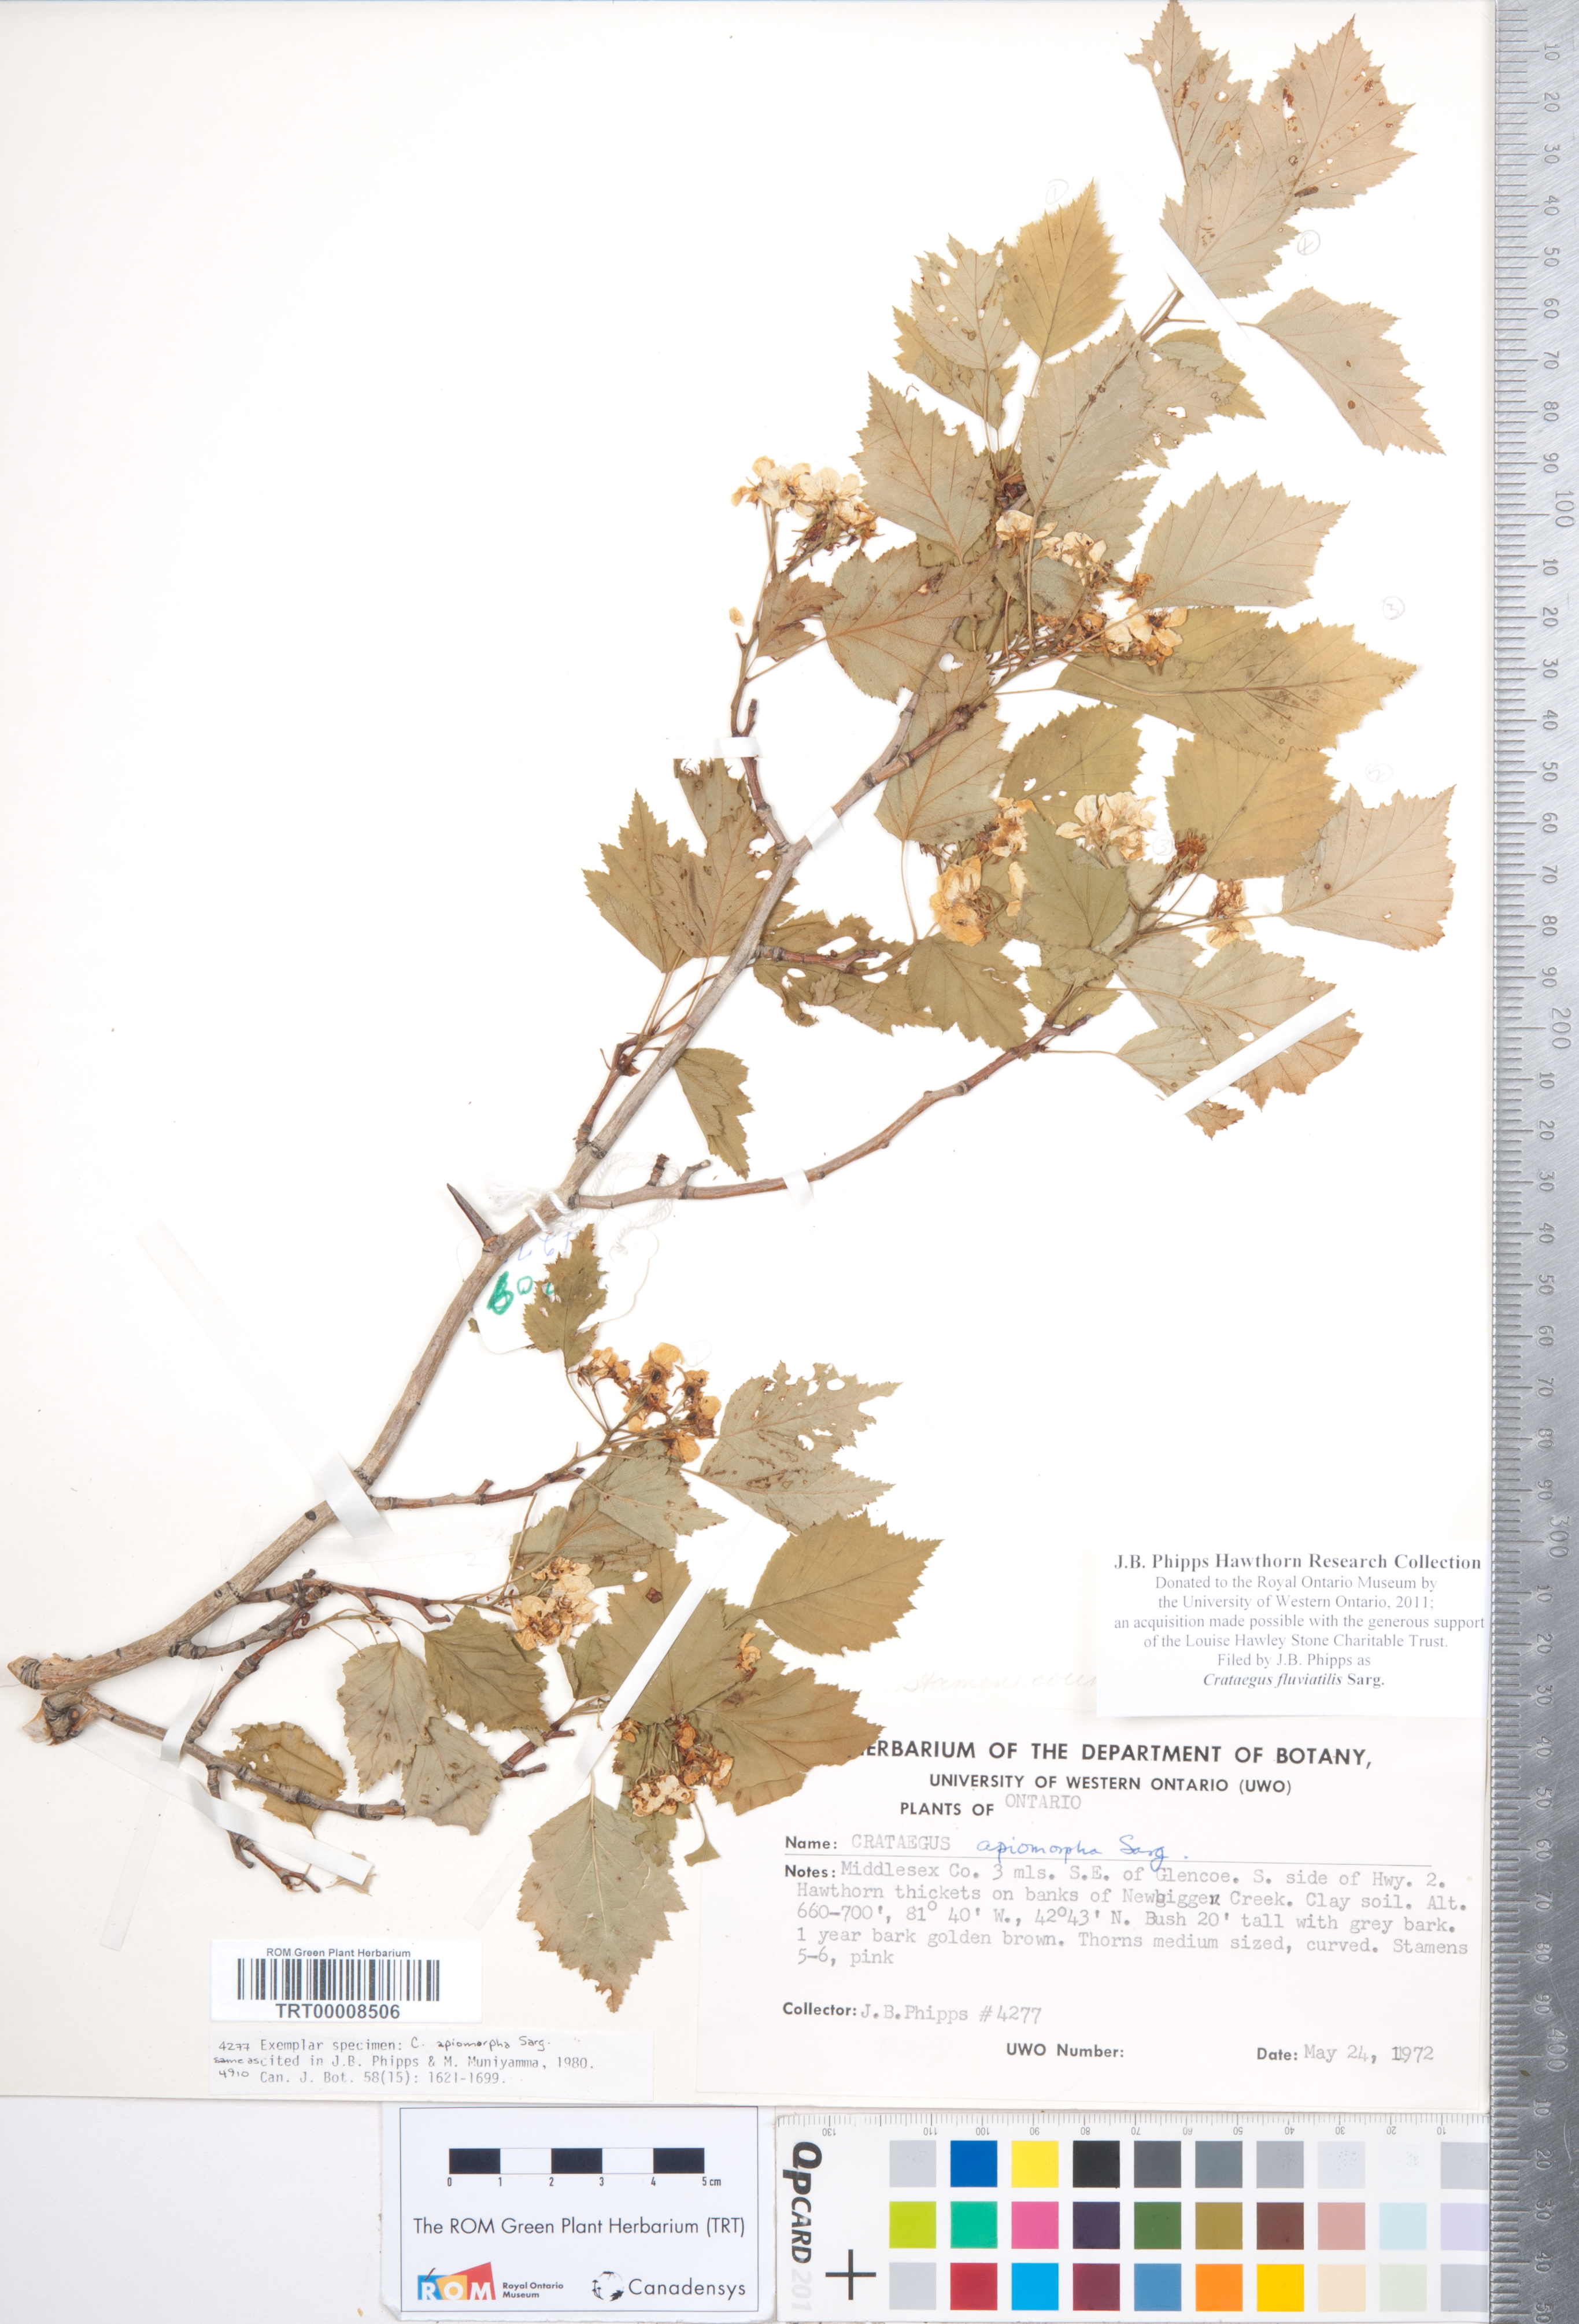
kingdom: Plantae
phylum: Tracheophyta
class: Magnoliopsida
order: Rosales
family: Rosaceae
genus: Crataegus
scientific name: Crataegus fluviatilis
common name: Fort sheridan hawthorn
